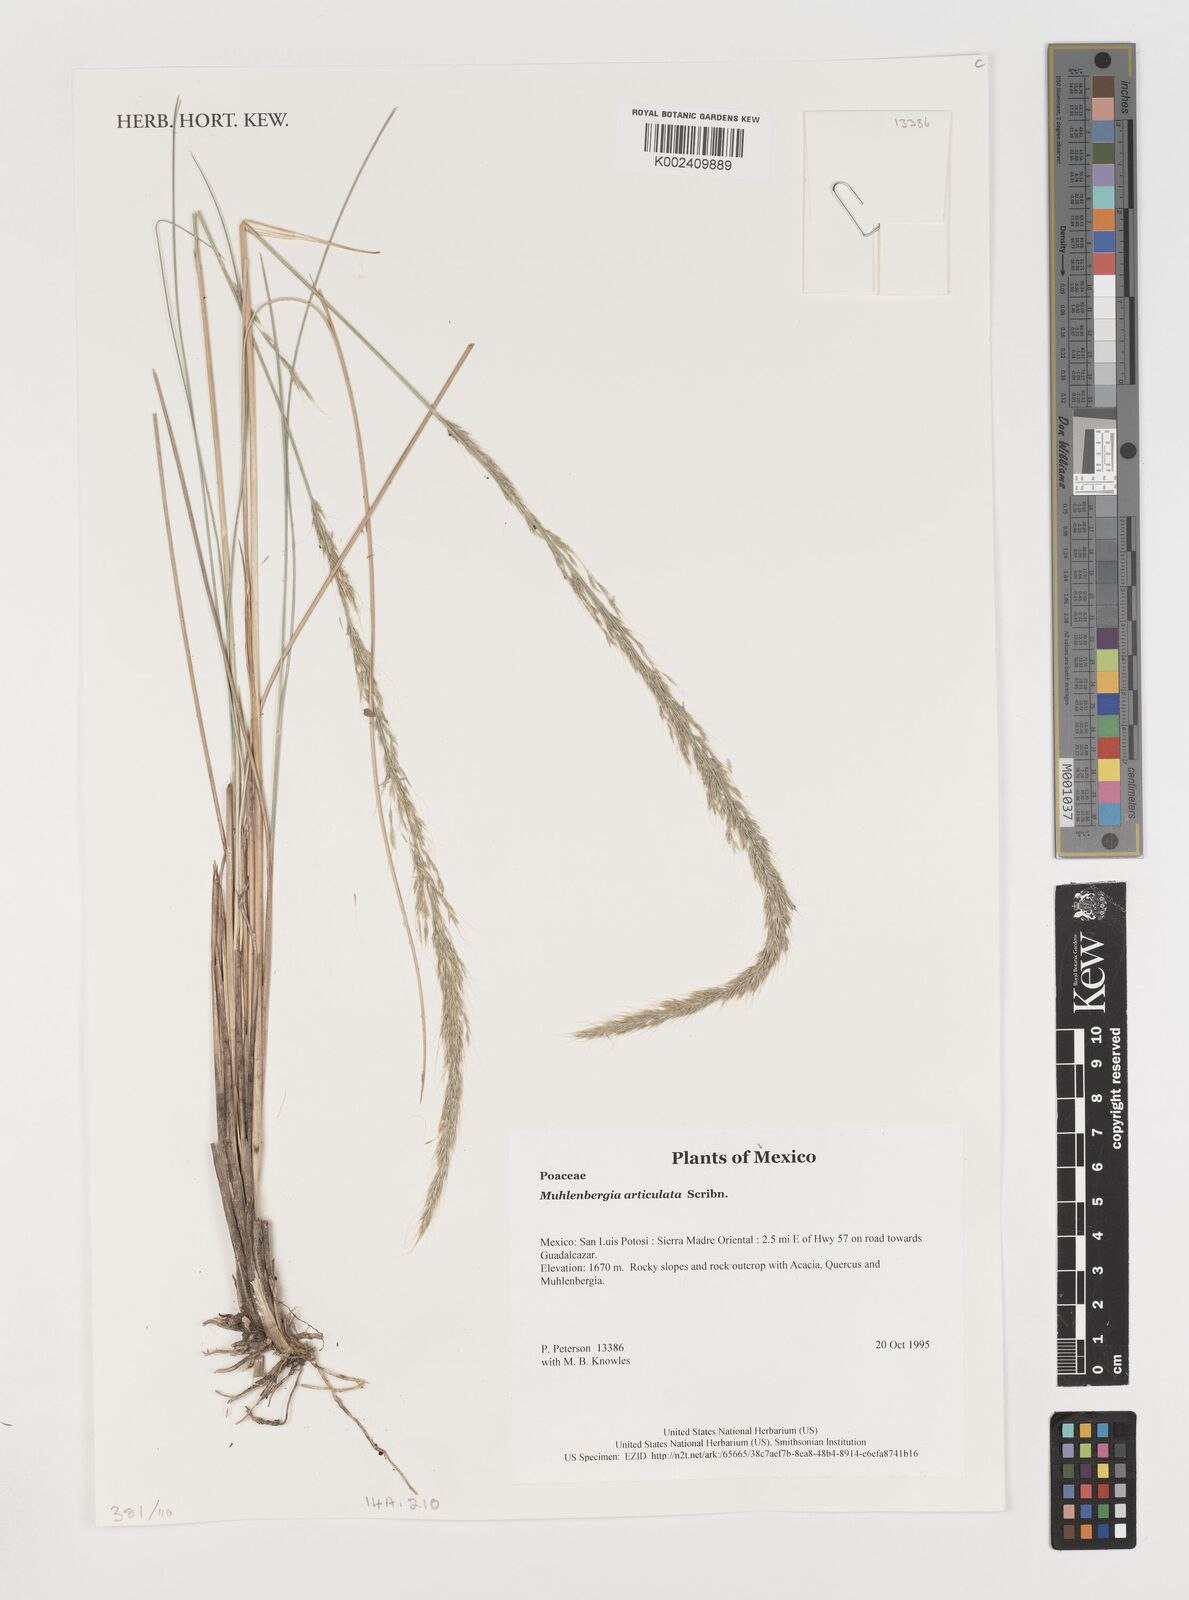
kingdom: Plantae
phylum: Tracheophyta
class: Liliopsida
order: Poales
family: Poaceae
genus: Muhlenbergia
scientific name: Muhlenbergia articulata
